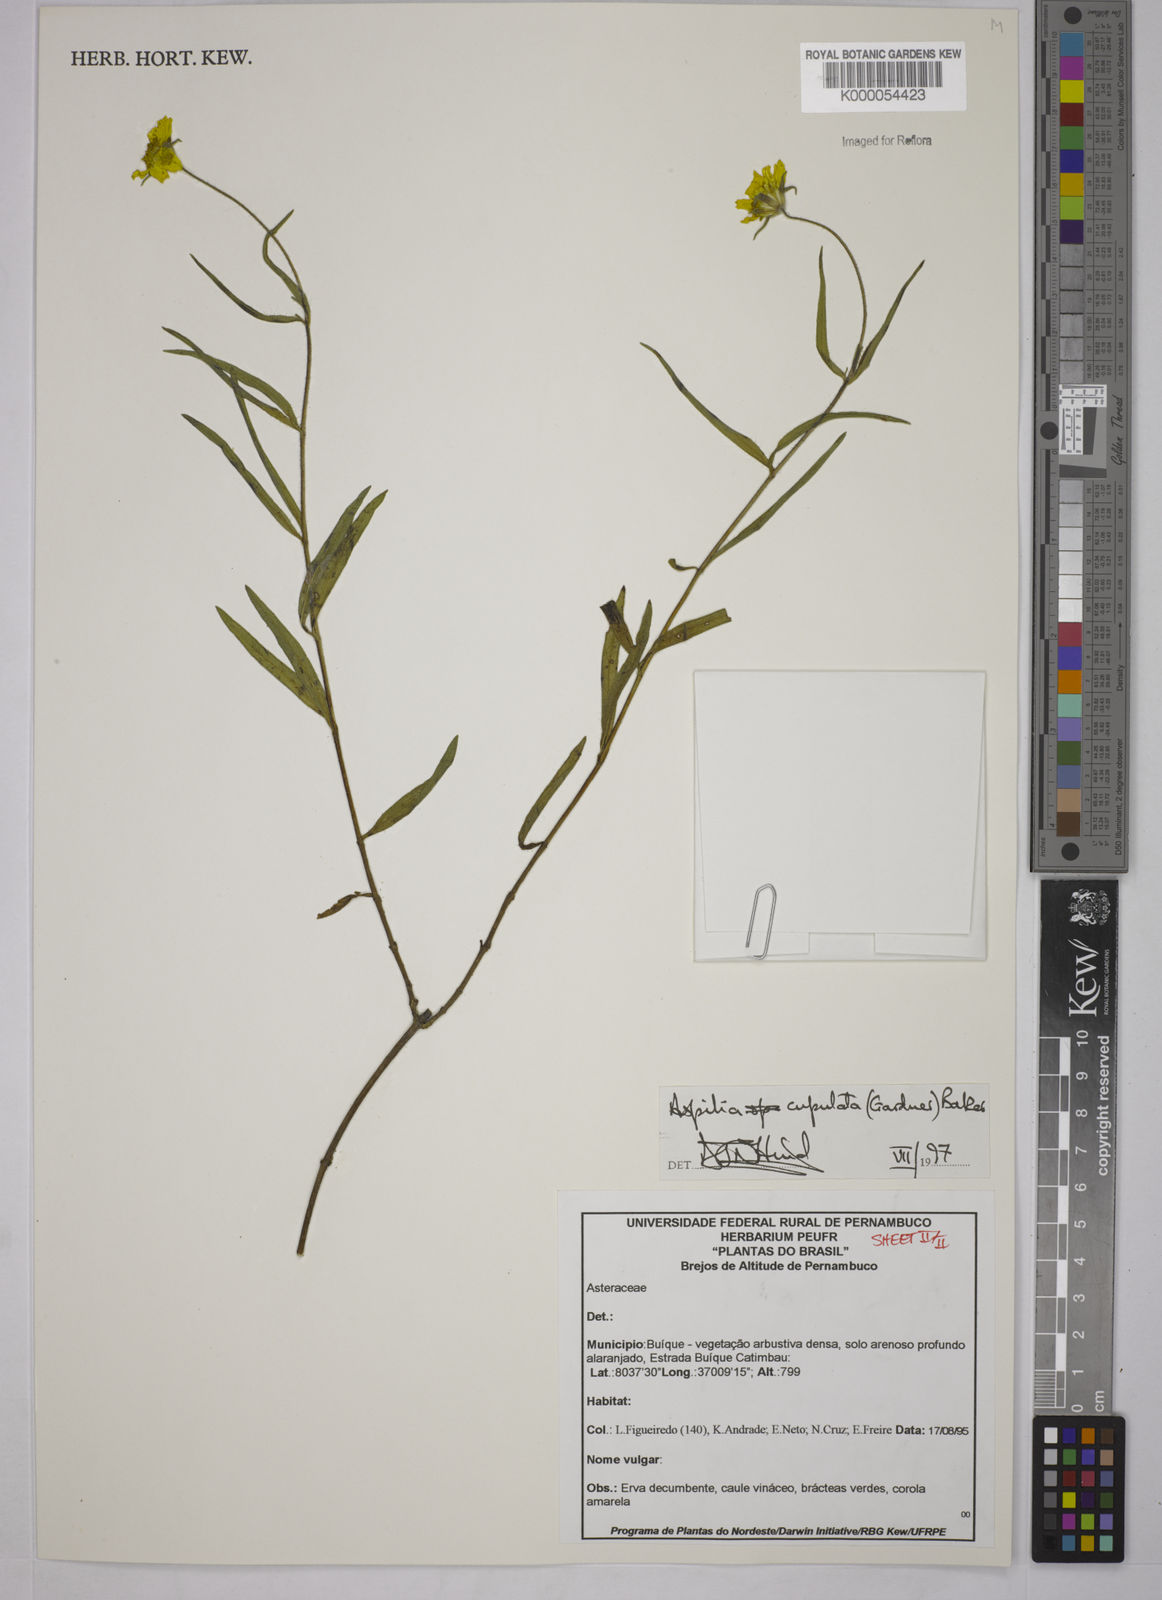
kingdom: Plantae
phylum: Tracheophyta
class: Magnoliopsida
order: Asterales
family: Asteraceae
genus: Wedelia
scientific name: Wedelia angustifolia
